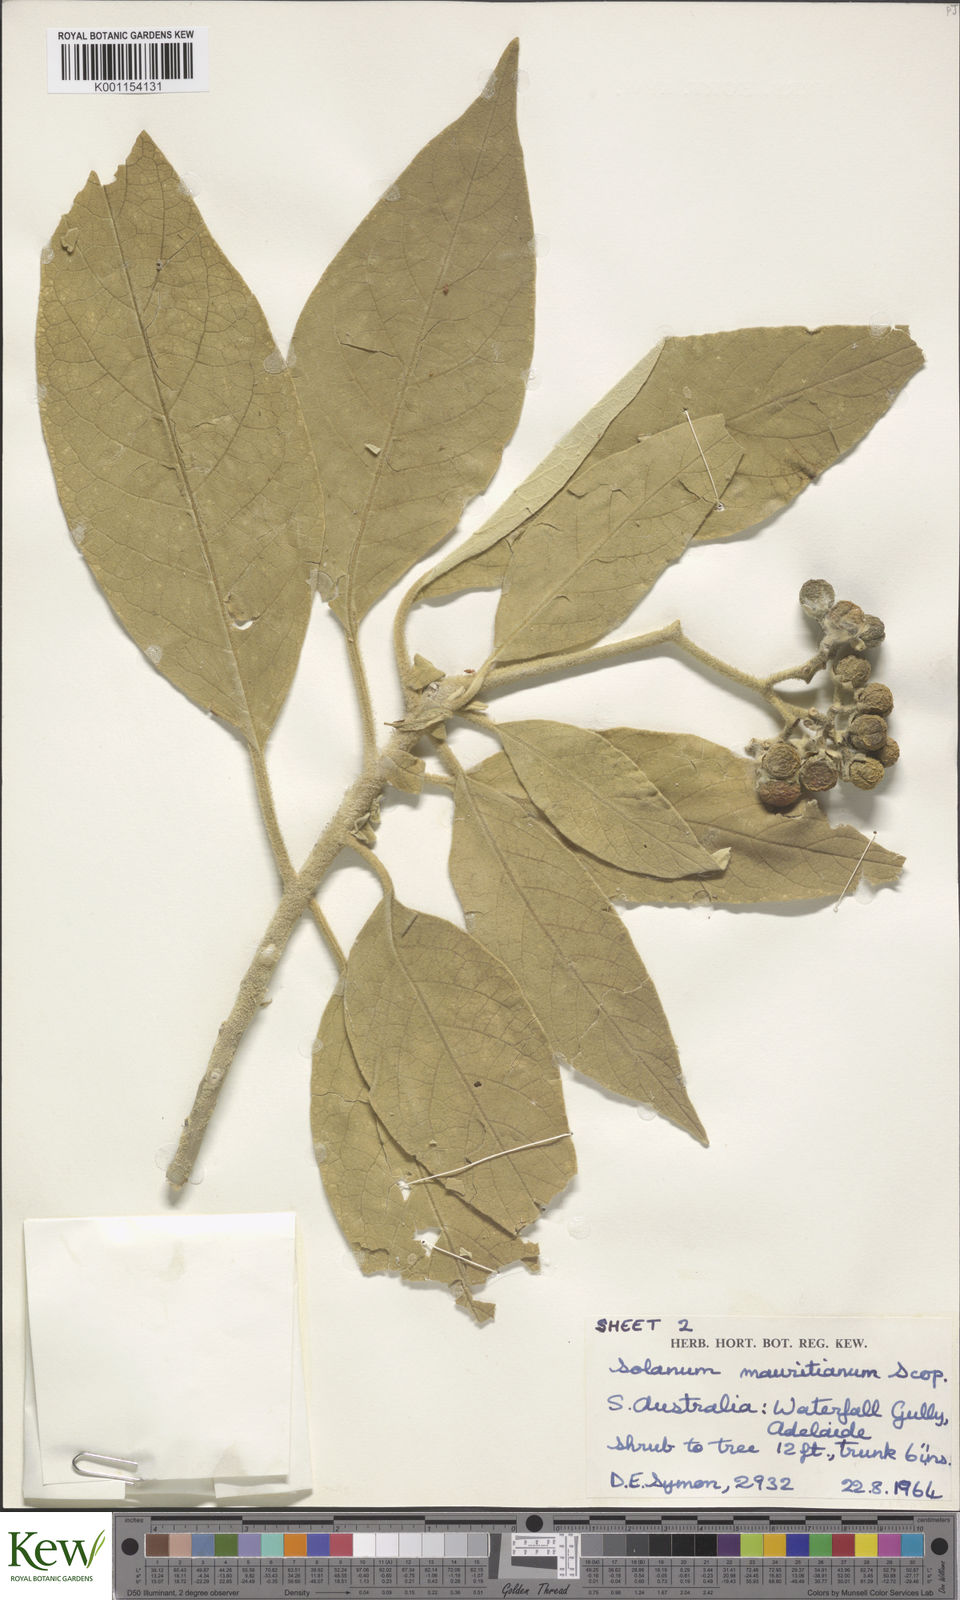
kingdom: Plantae
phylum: Tracheophyta
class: Magnoliopsida
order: Solanales
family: Solanaceae
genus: Solanum
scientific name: Solanum mauritianum
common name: Earleaf nightshade
